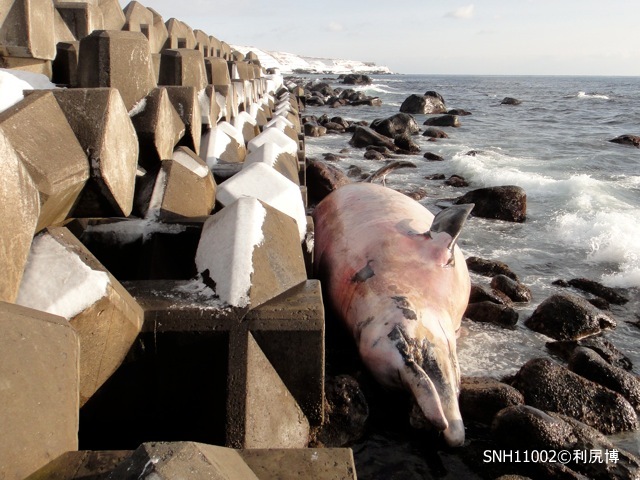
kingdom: Animalia
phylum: Chordata
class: Mammalia
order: Cetacea
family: Hyperoodontidae
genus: Berardius
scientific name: Berardius bairdii
